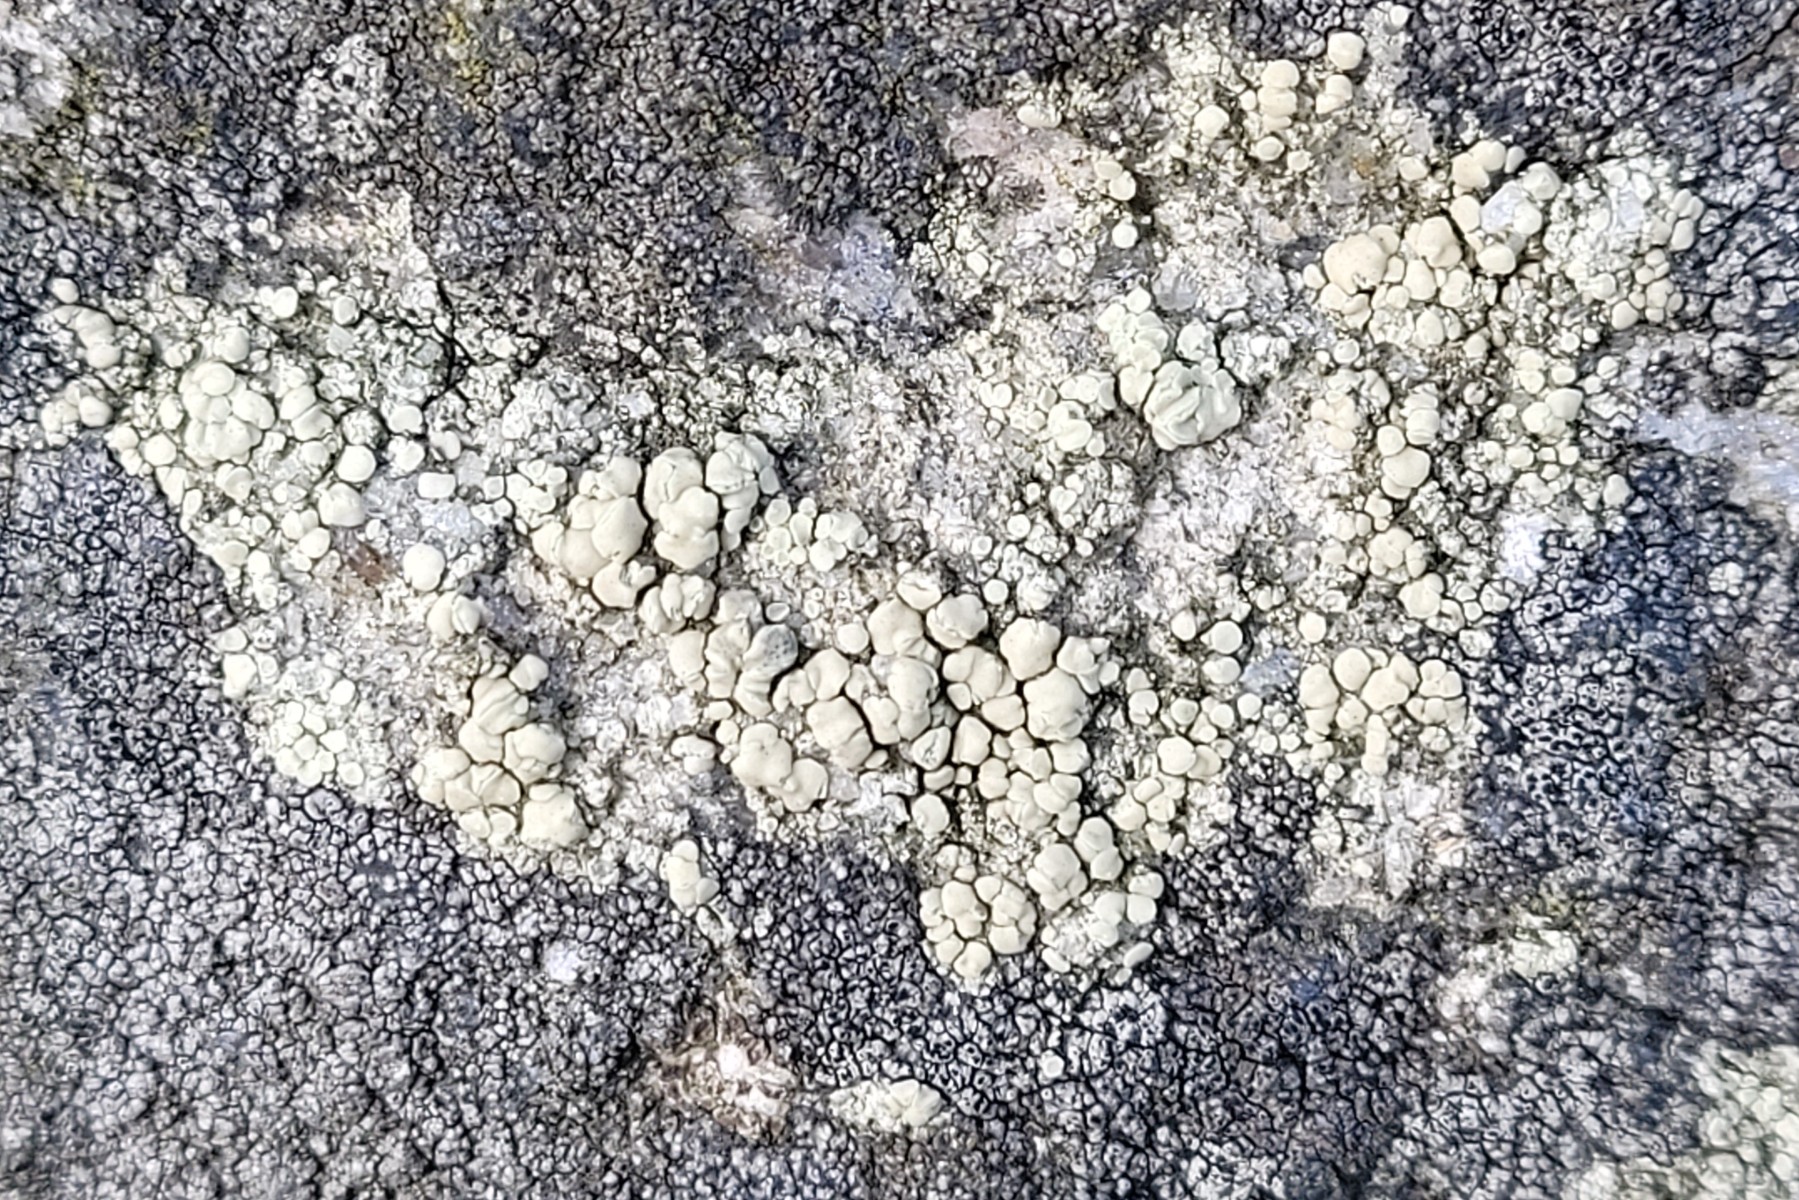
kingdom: Fungi
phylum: Ascomycota
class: Lecanoromycetes
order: Lecanorales
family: Lecanoraceae
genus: Lecanora
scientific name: Lecanora polytropa
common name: bleggrøn kantskivelav
